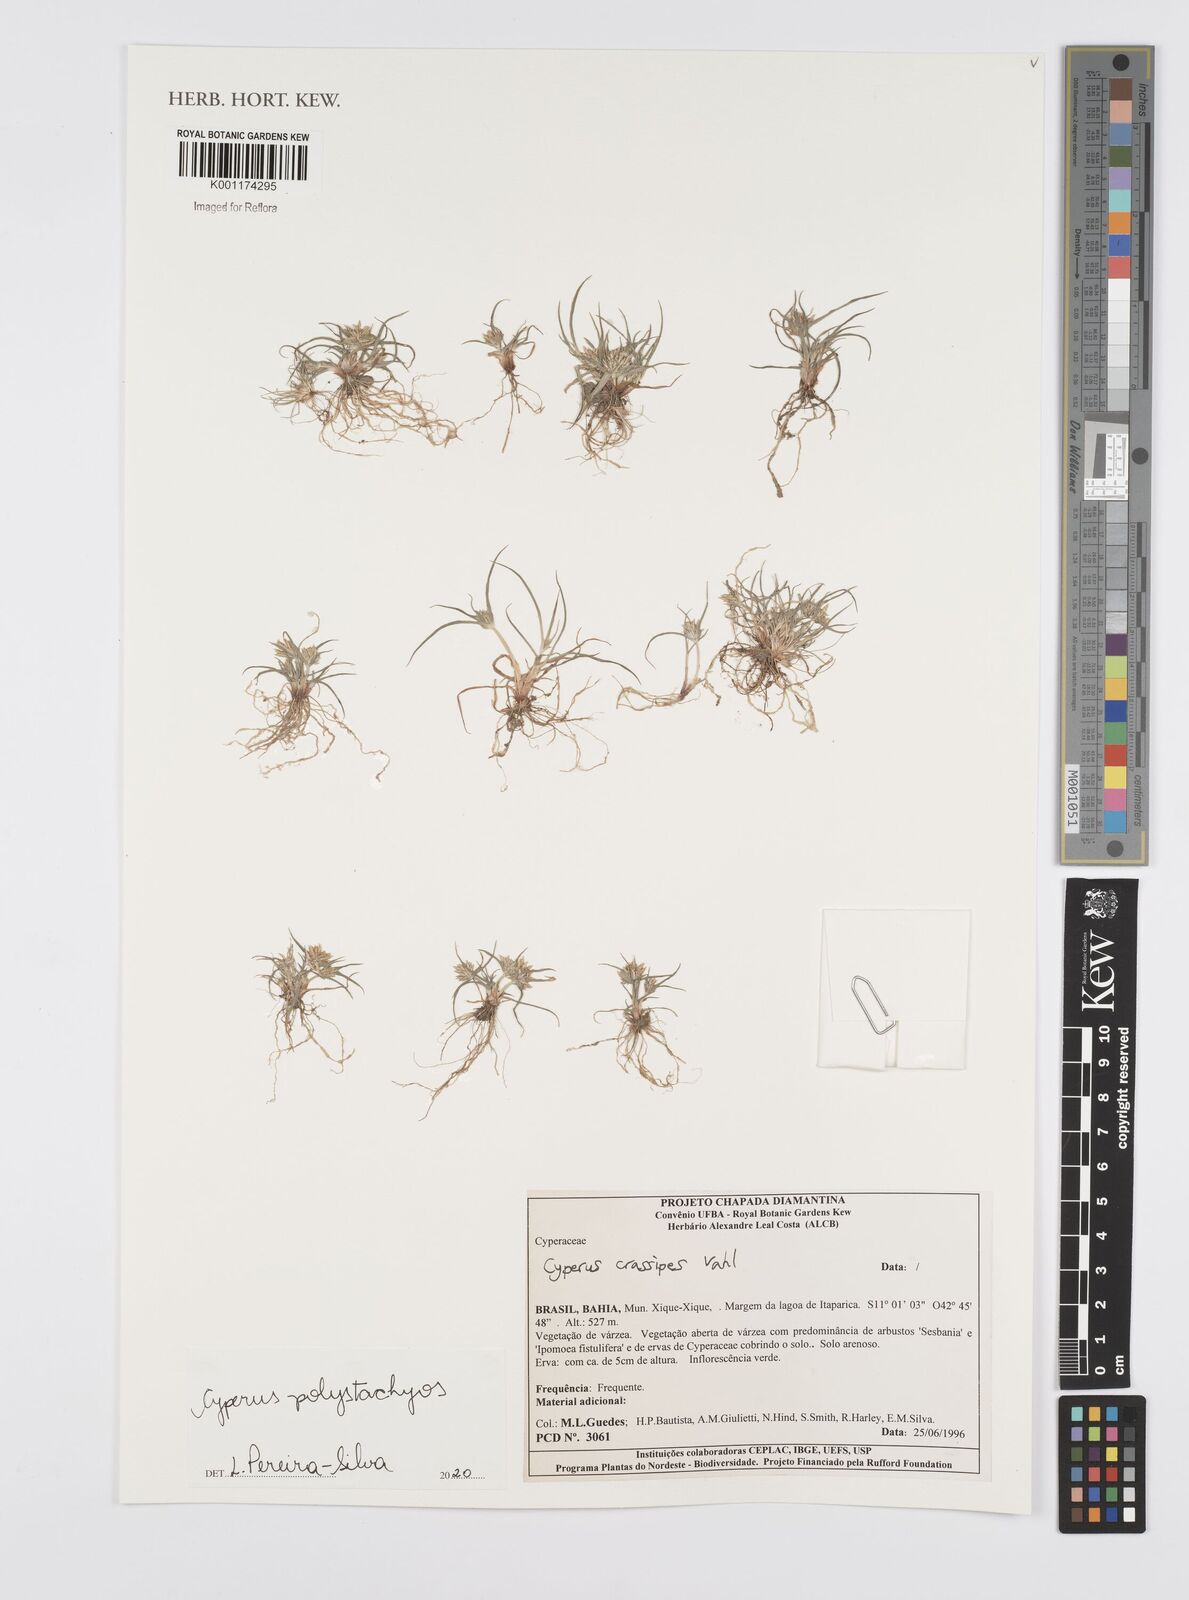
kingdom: Plantae
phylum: Tracheophyta
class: Liliopsida
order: Poales
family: Cyperaceae
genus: Cyperus
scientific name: Cyperus polystachyos
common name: Bunchy flat sedge
